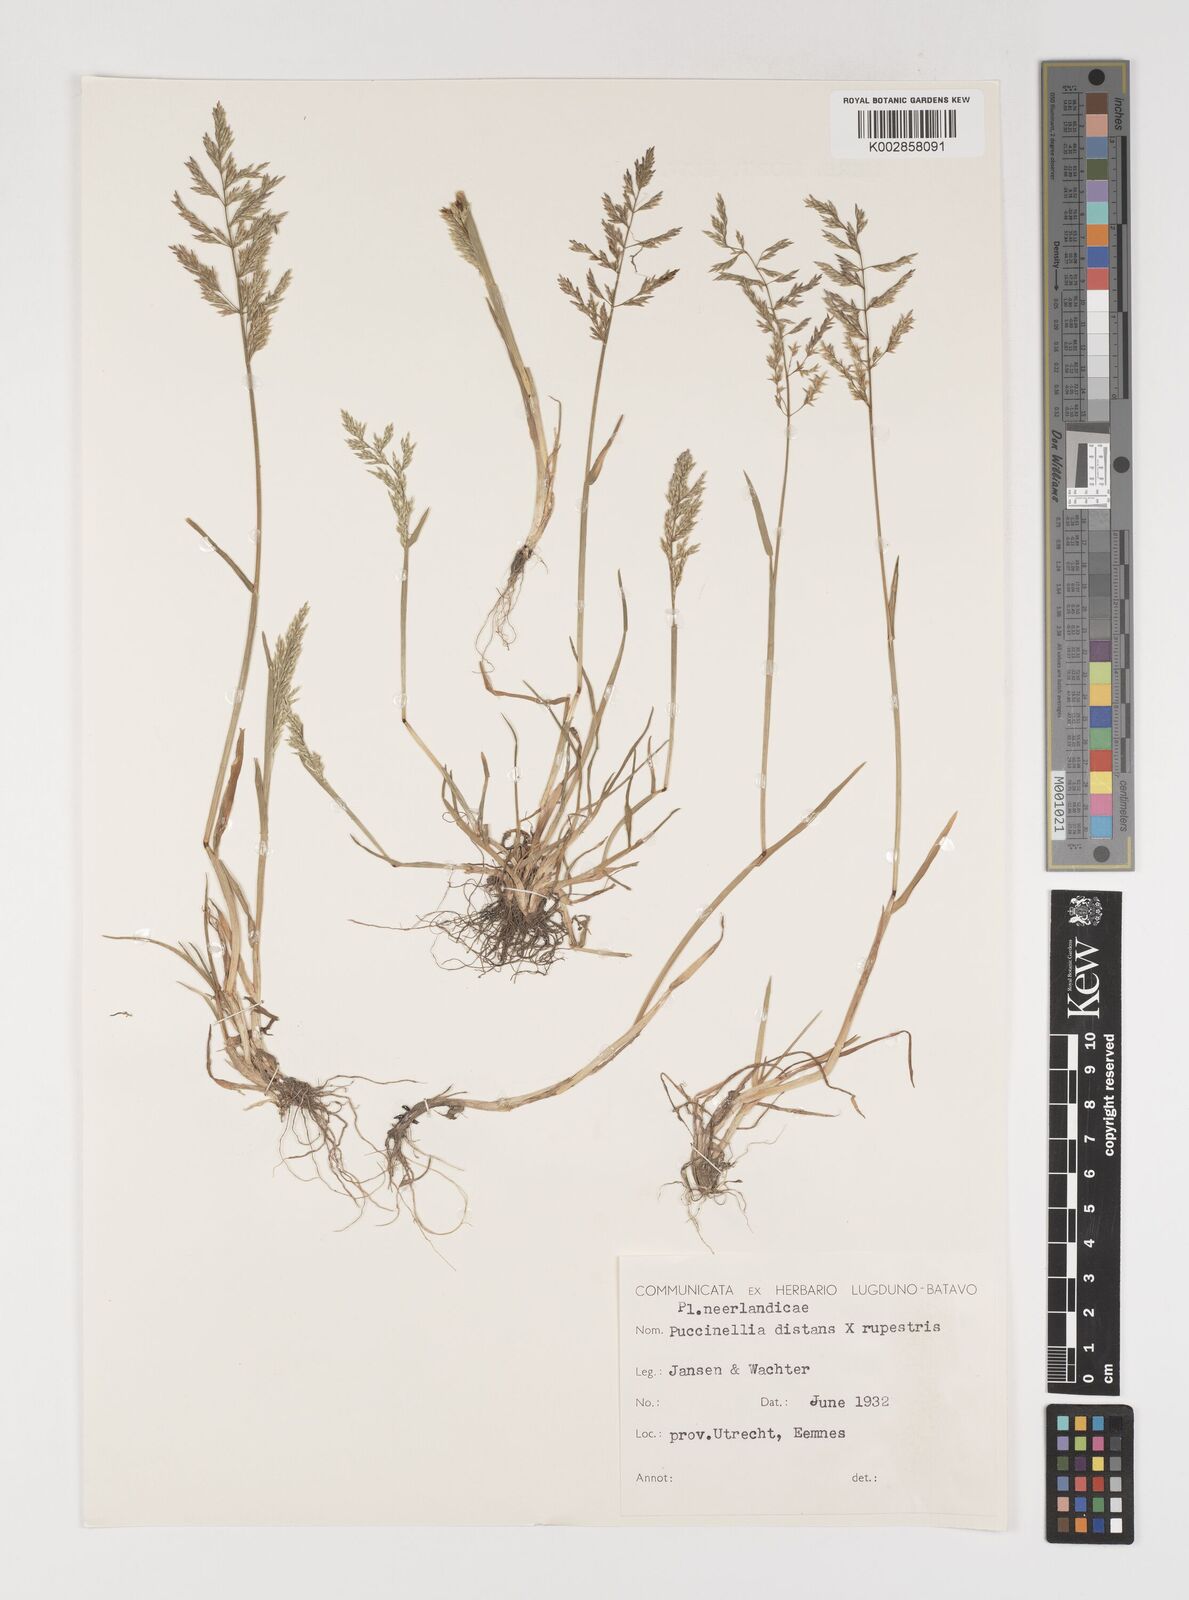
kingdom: Plantae
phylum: Tracheophyta
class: Liliopsida
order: Poales
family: Poaceae
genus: Puccinellia
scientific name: Puccinellia rupestris
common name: Stiff saltmarsh-grass
